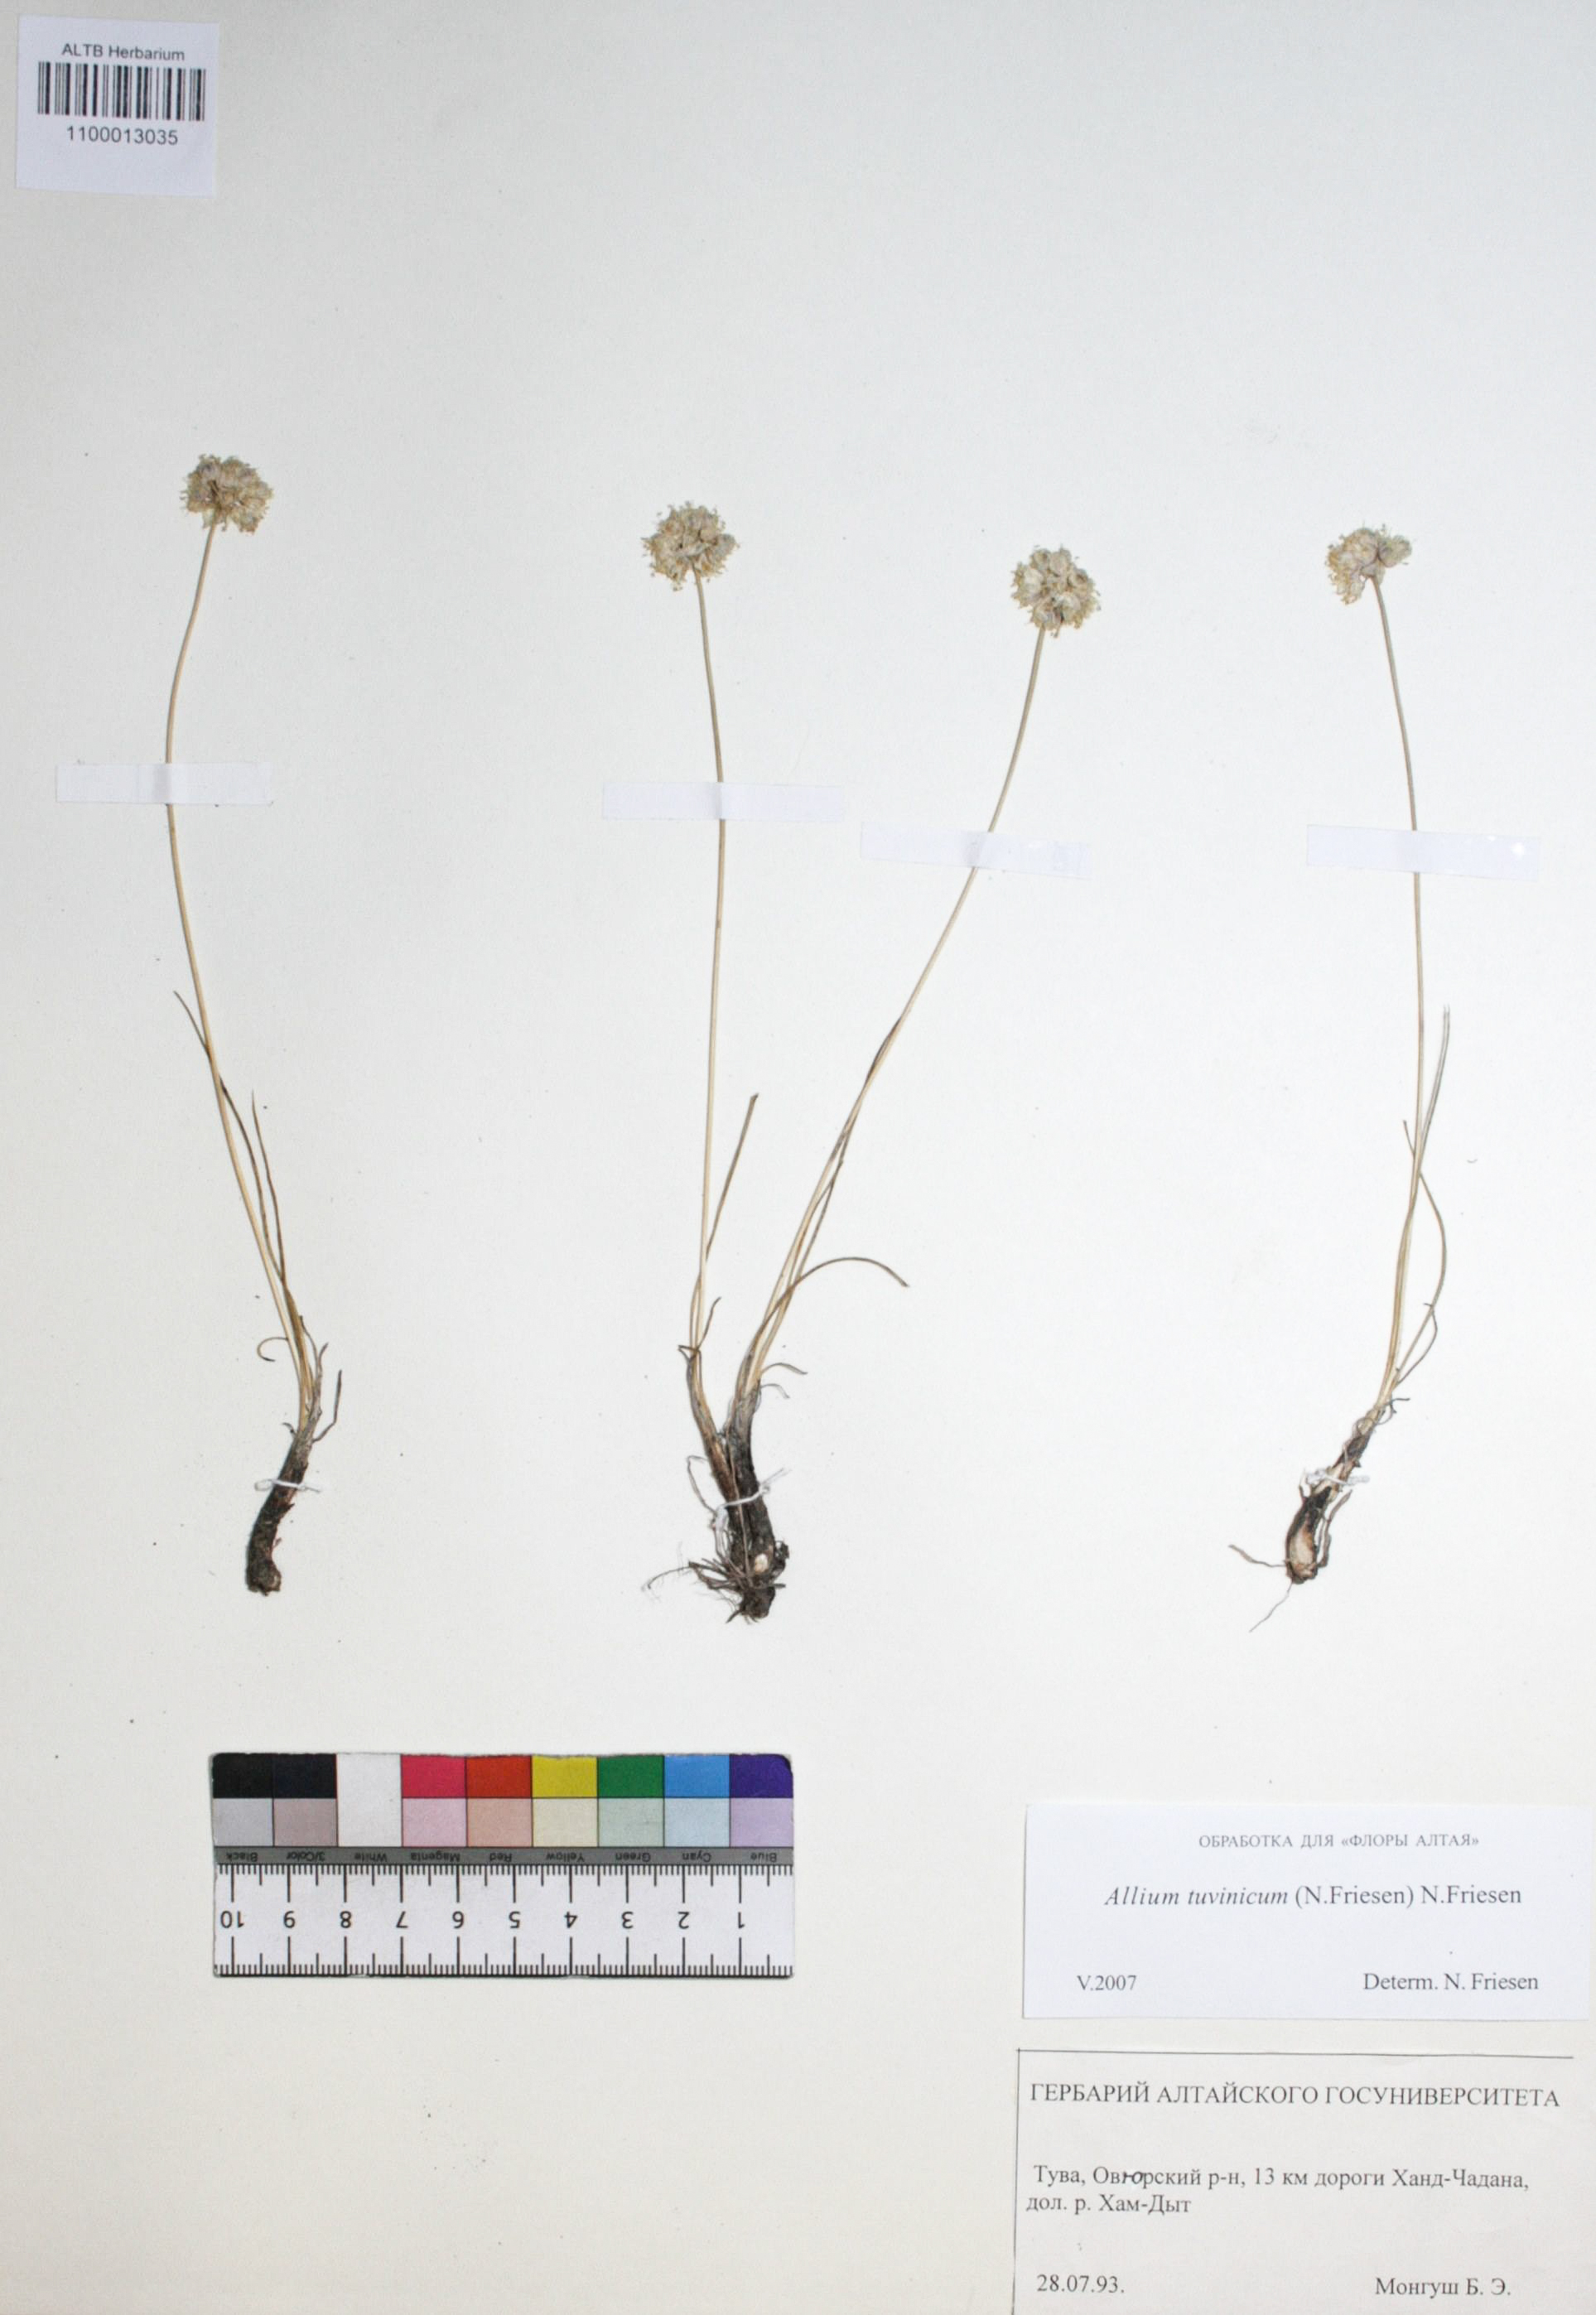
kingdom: Plantae
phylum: Tracheophyta
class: Liliopsida
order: Asparagales
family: Amaryllidaceae
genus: Allium
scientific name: Allium tuvinicum
